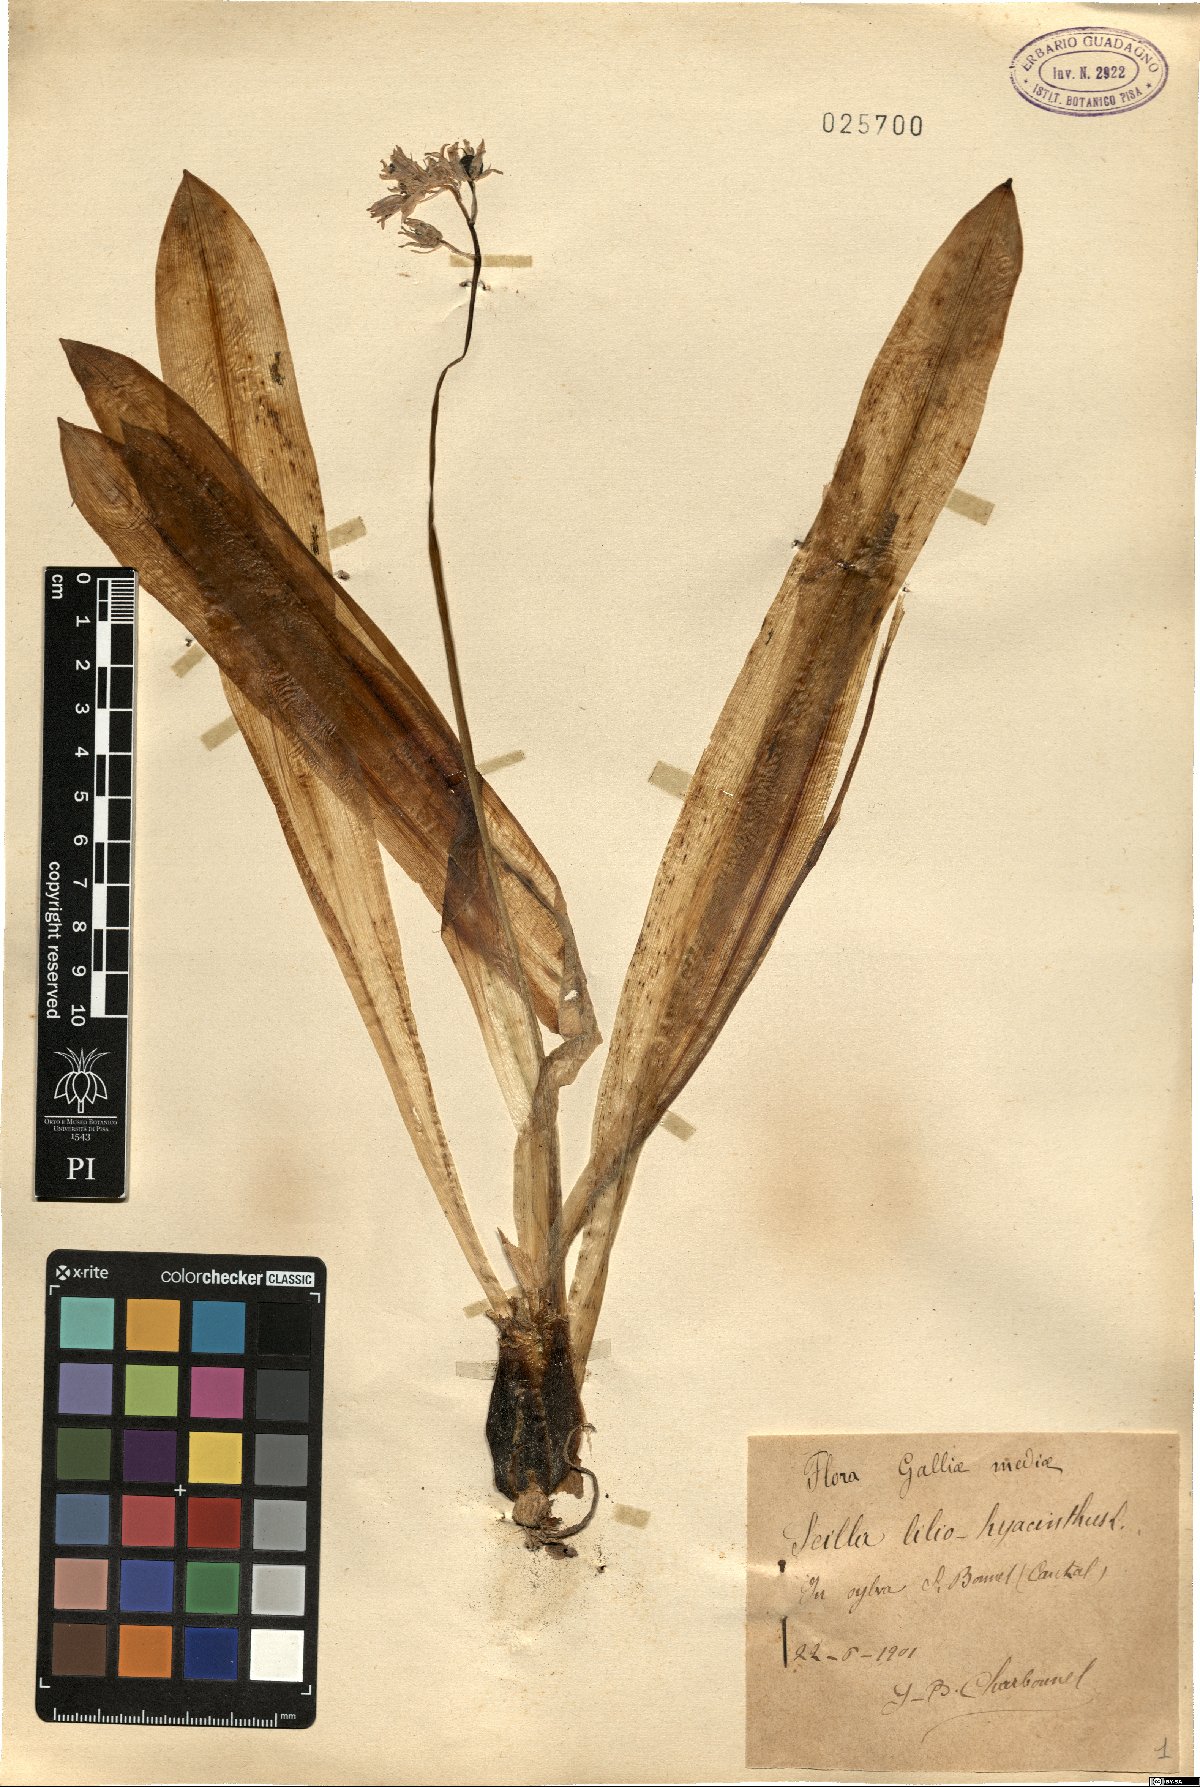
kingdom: Plantae
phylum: Tracheophyta
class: Liliopsida
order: Asparagales
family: Asparagaceae
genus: Scilla
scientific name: Scilla lilio-hyacinthus
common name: Pyrenean squill
